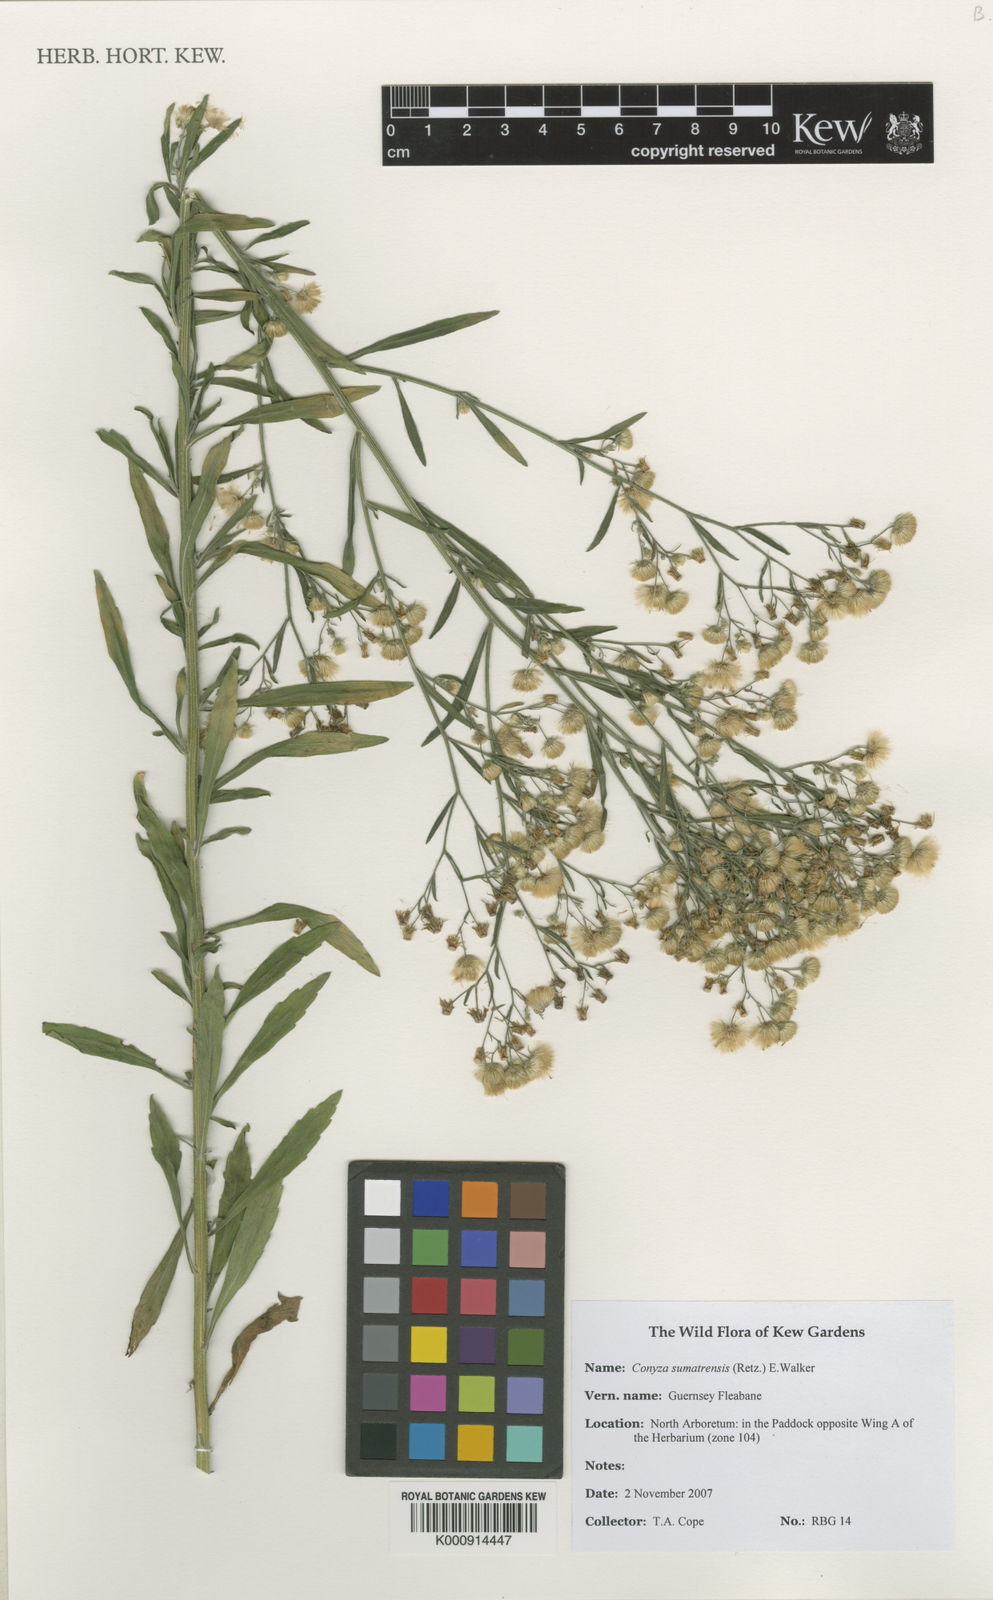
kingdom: Plantae
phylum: Tracheophyta
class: Magnoliopsida
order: Asterales
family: Asteraceae
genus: Erigeron
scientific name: Erigeron sumatrensis
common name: Daisy
